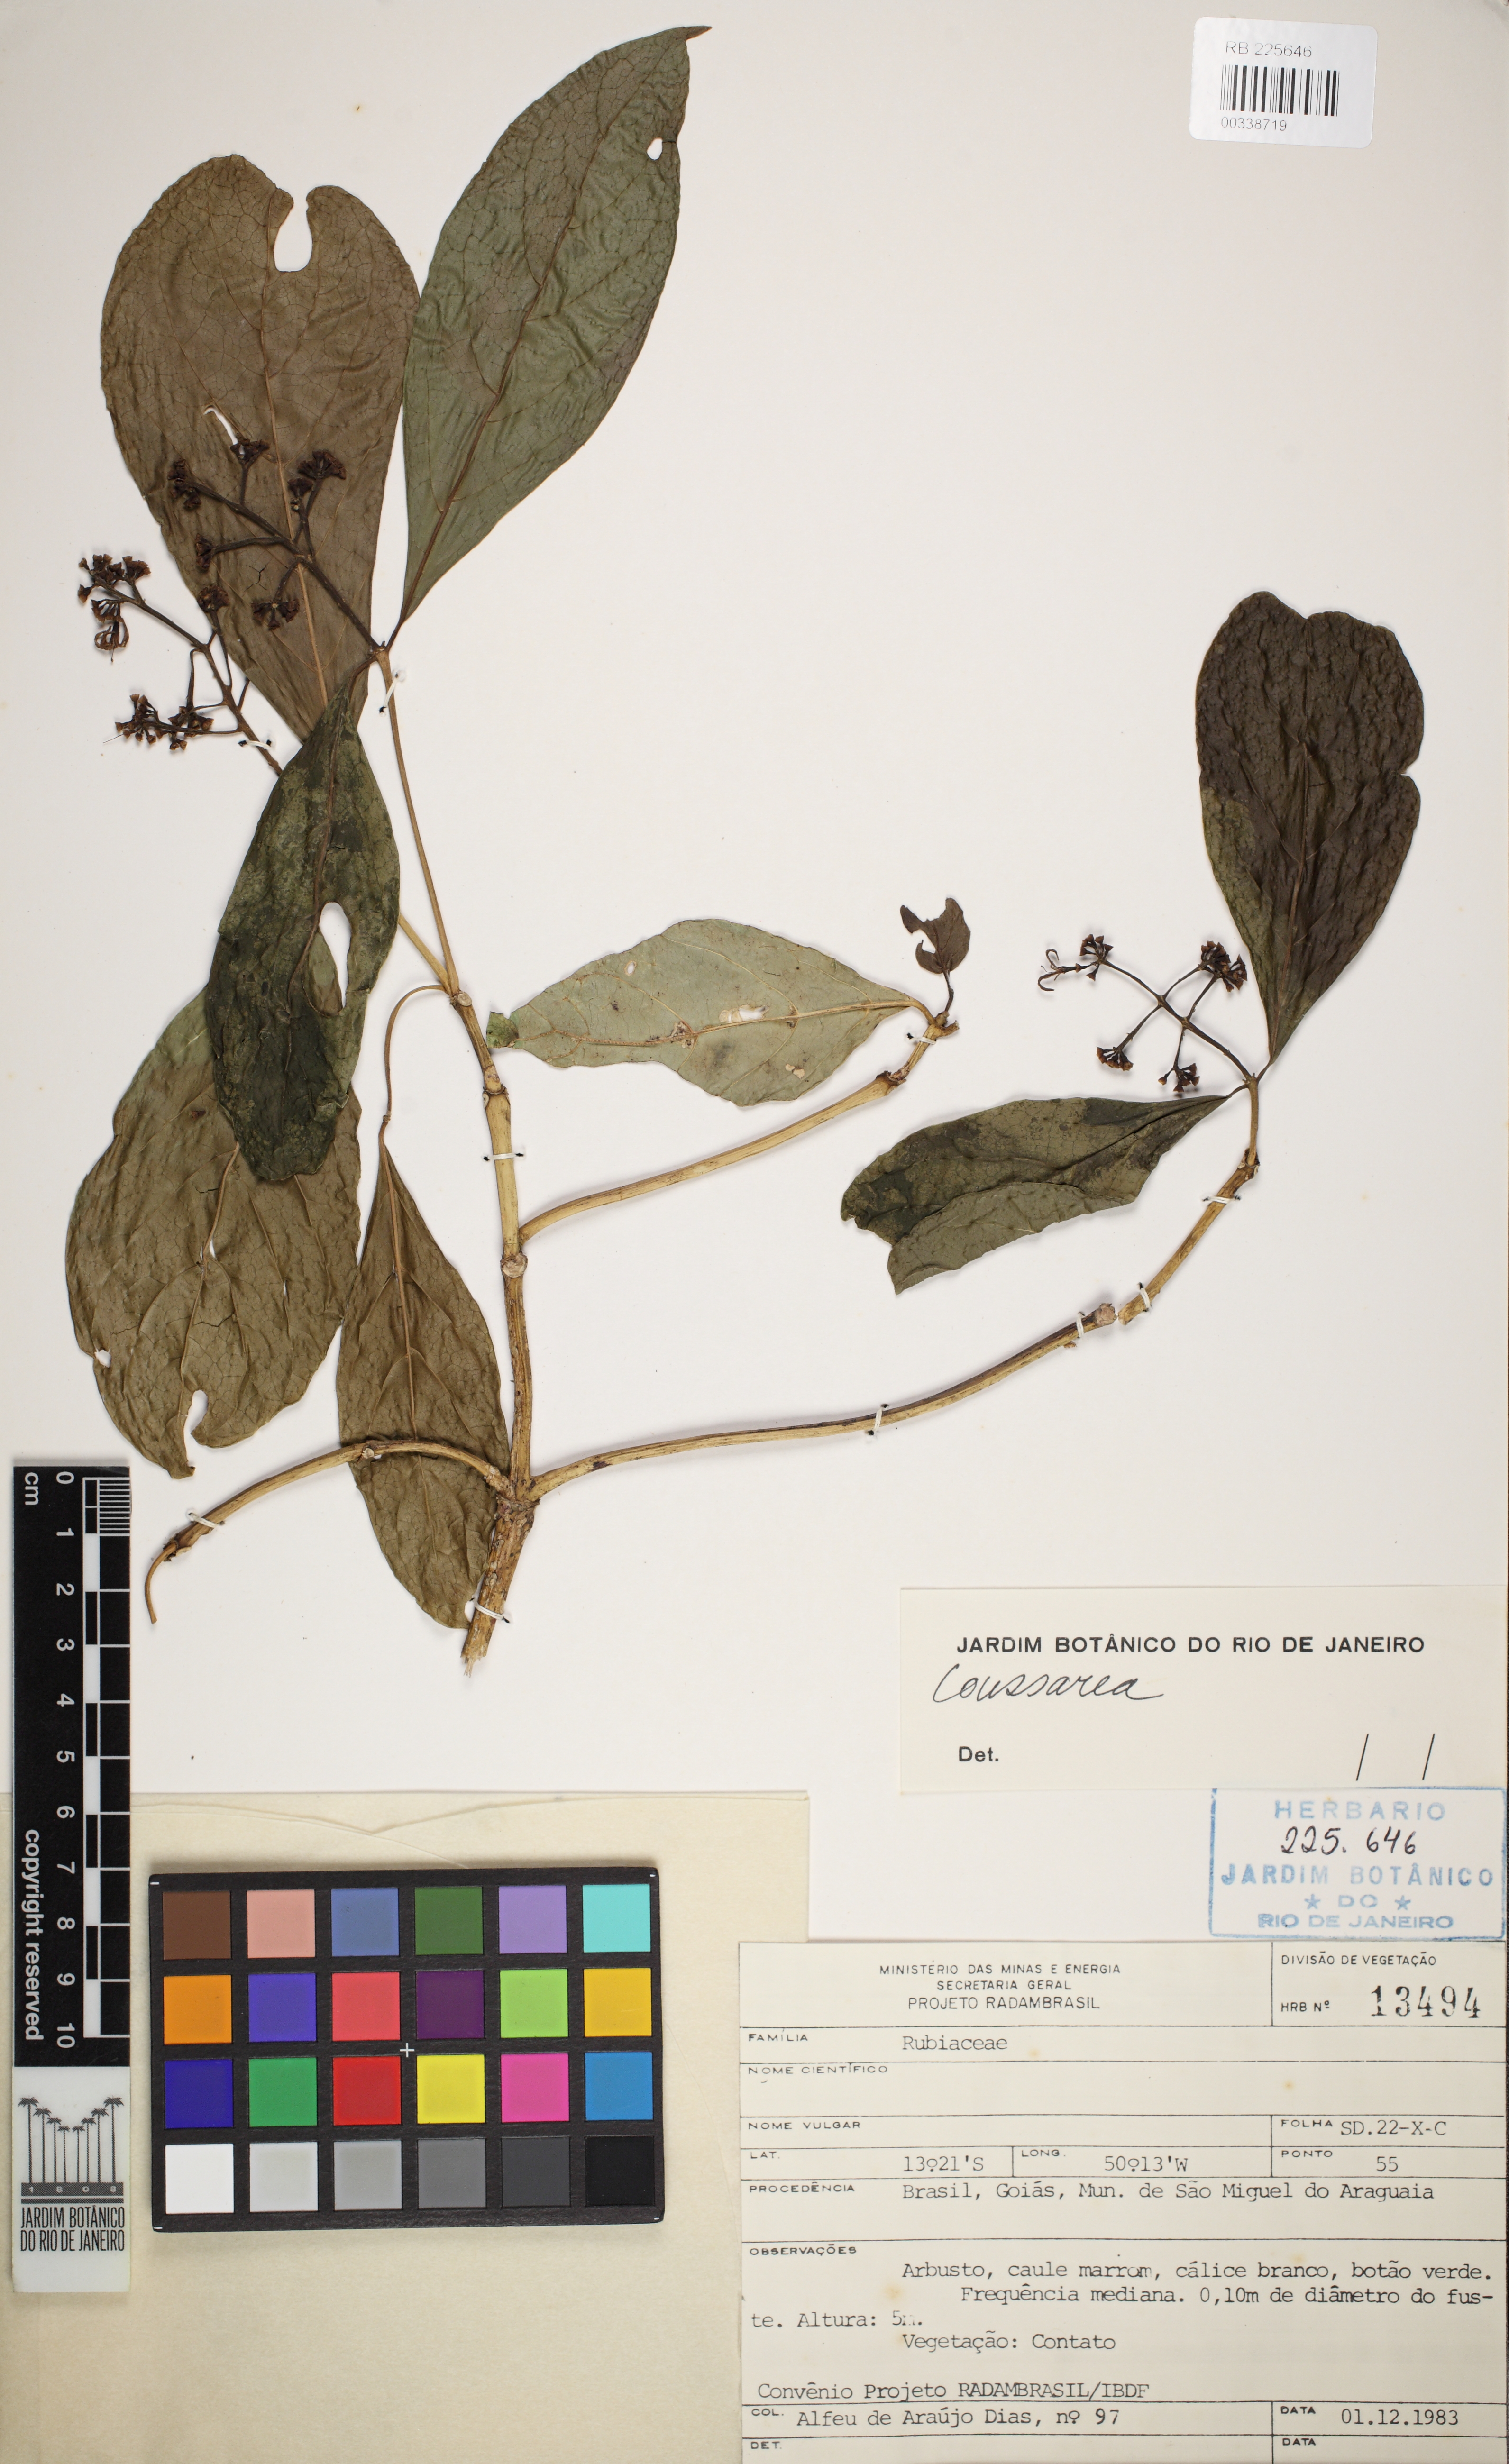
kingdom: Plantae
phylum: Tracheophyta
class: Magnoliopsida
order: Gentianales
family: Rubiaceae
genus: Coussarea
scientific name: Coussarea
